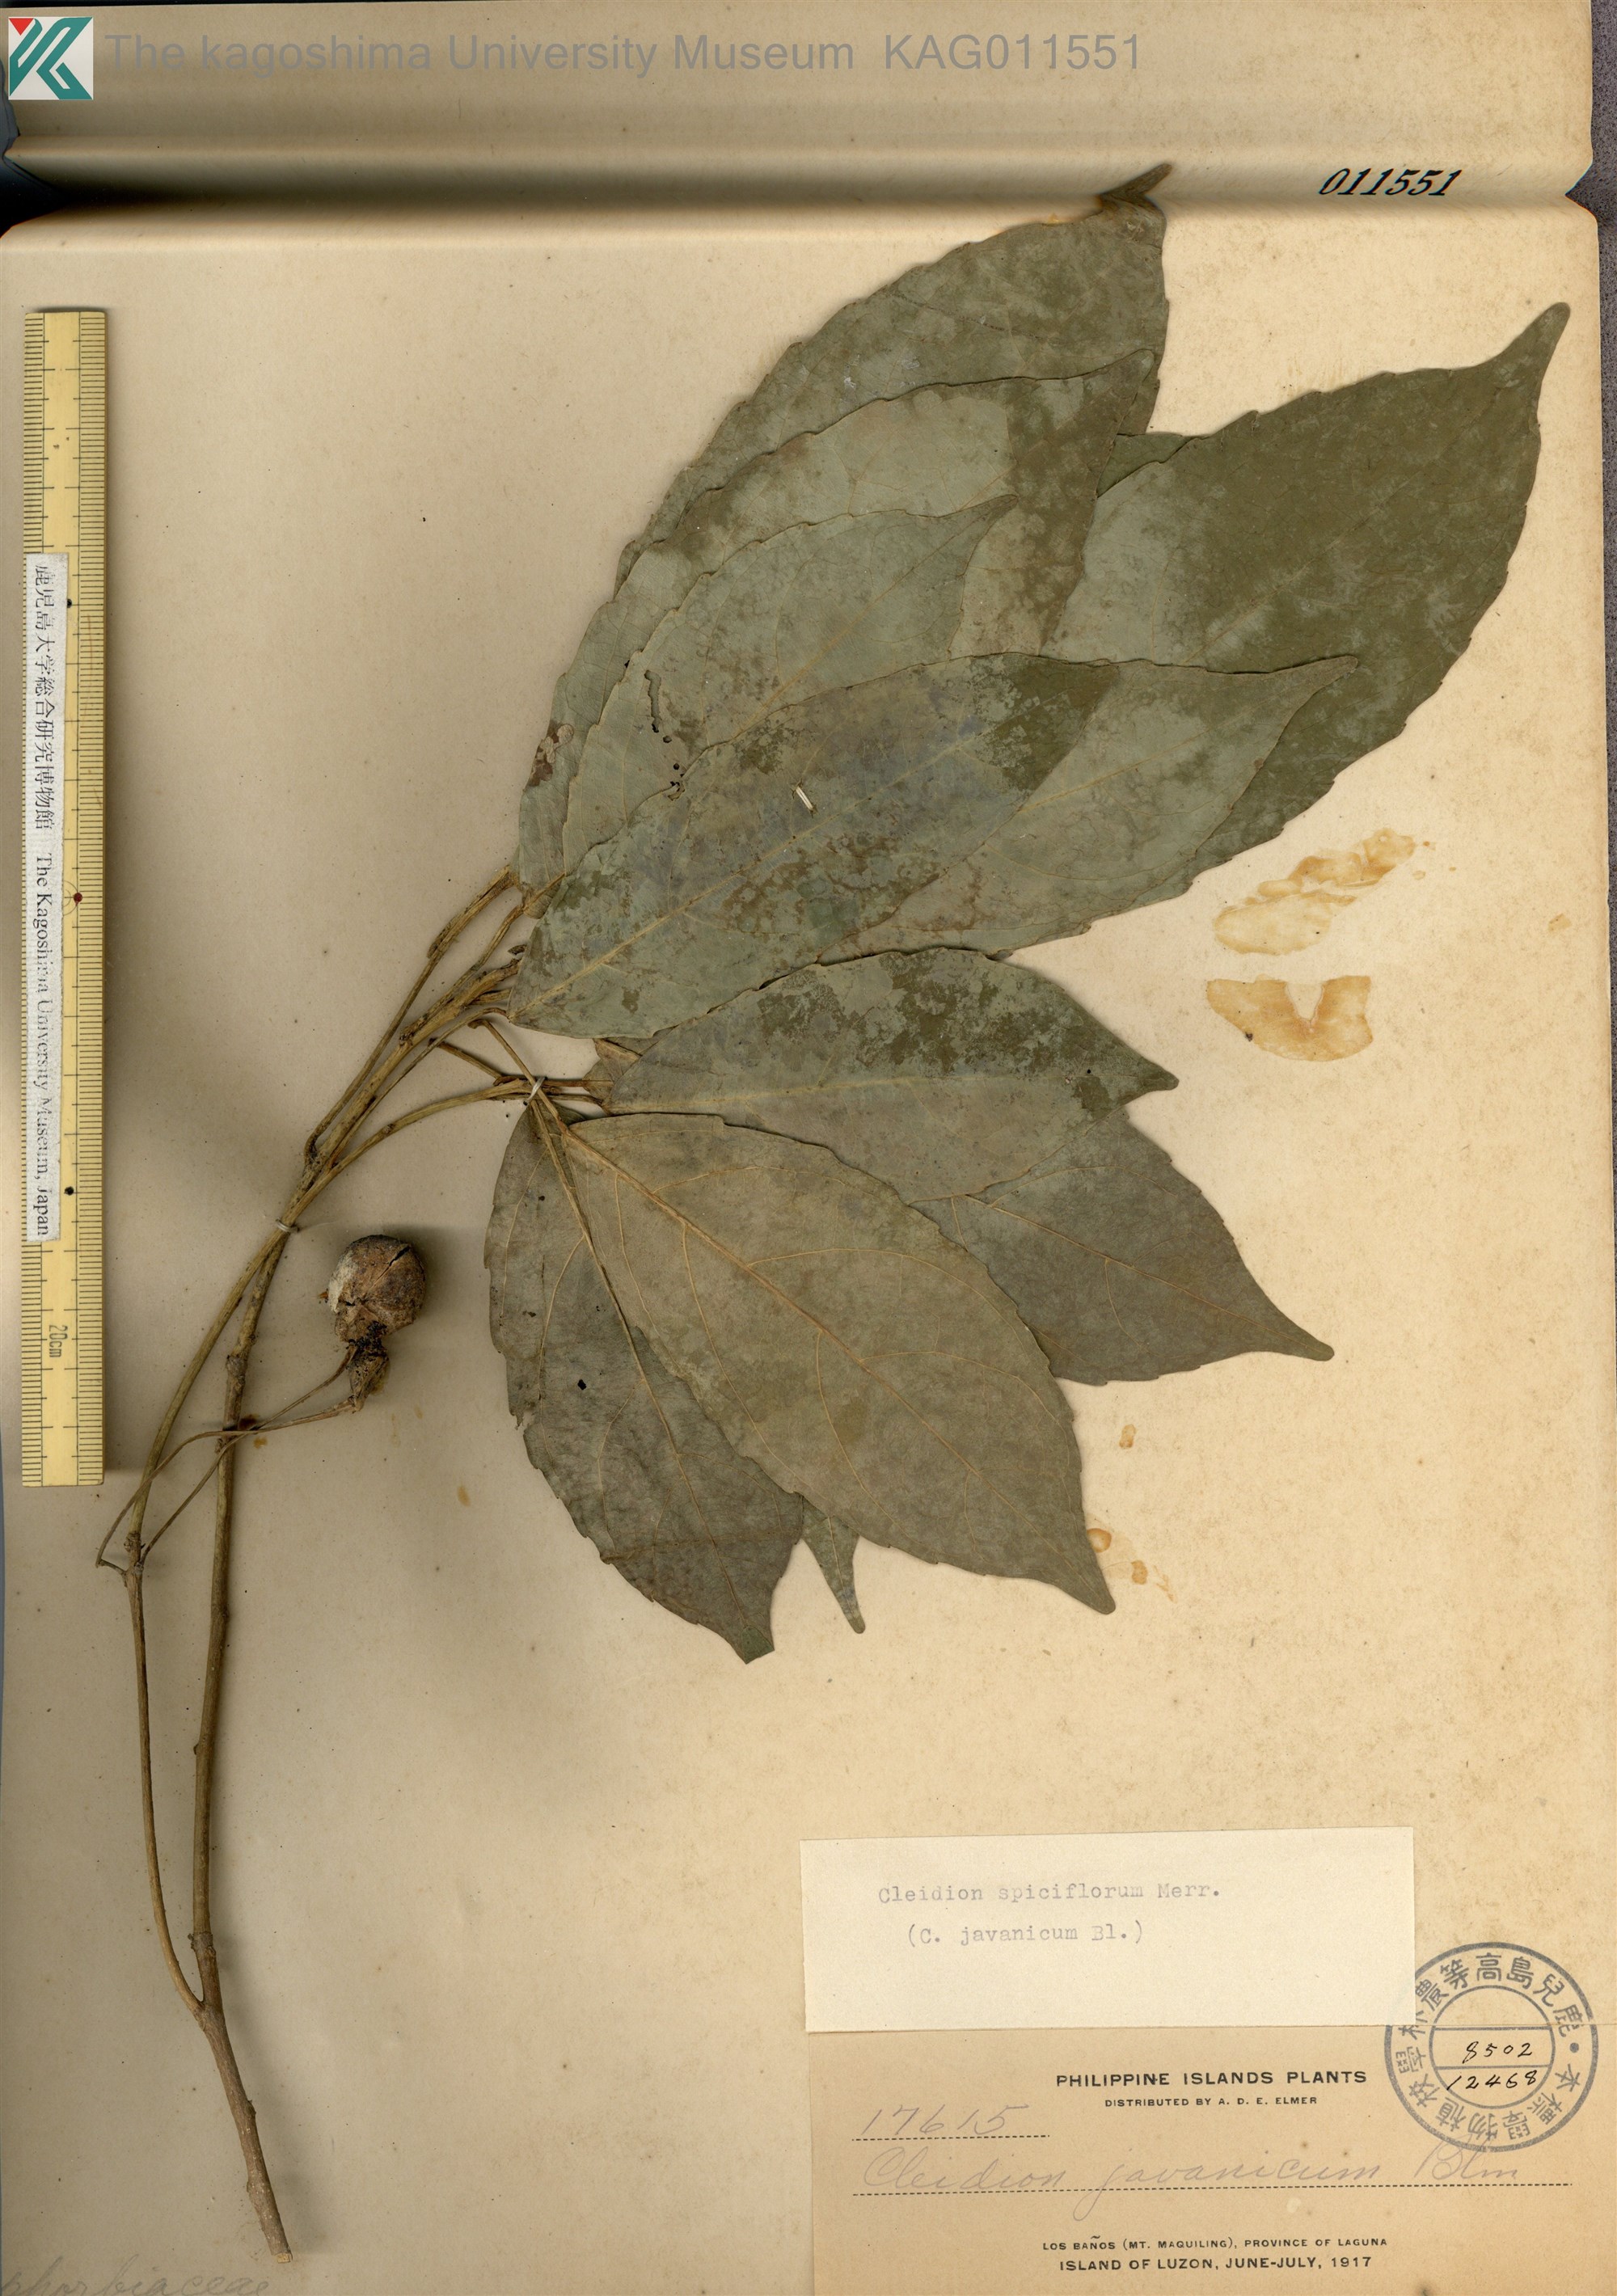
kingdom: Plantae
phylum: Tracheophyta
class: Magnoliopsida
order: Malpighiales
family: Euphorbiaceae
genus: Cleidion
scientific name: Cleidion
